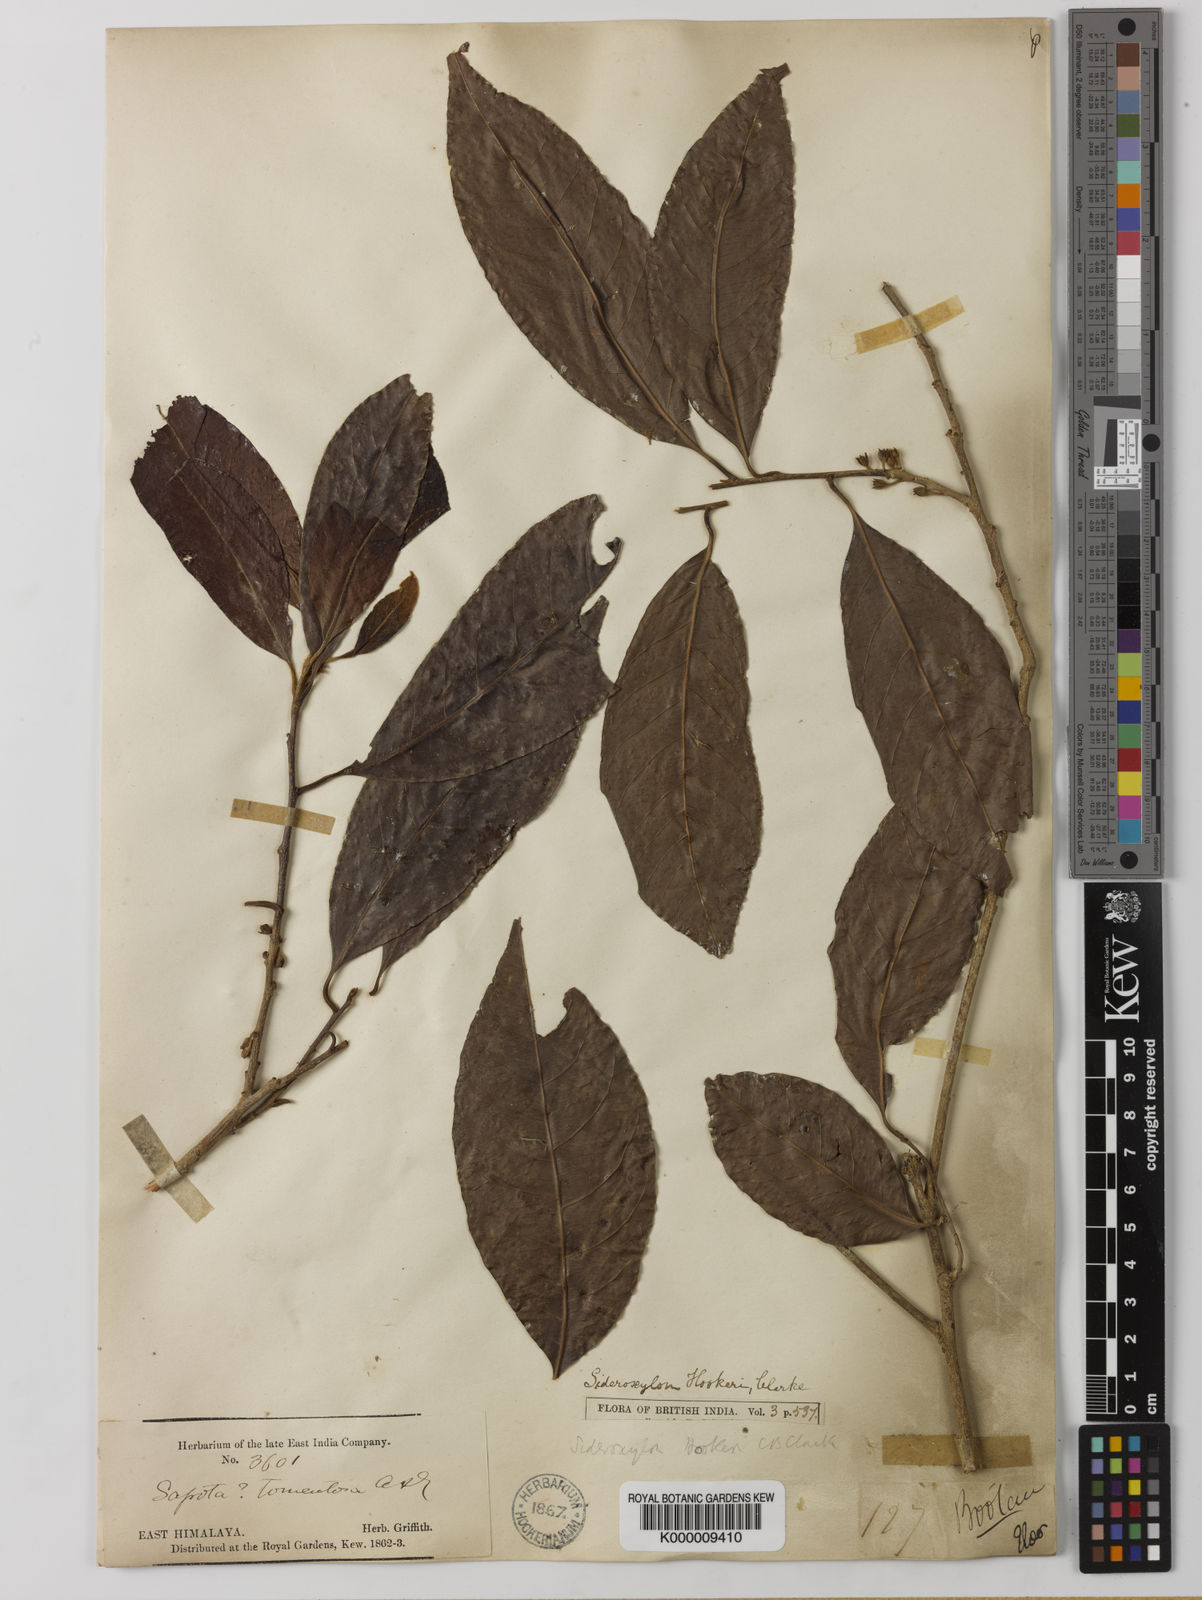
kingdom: Plantae
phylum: Tracheophyta
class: Magnoliopsida
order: Ericales
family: Sapotaceae
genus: Xantolis
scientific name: Xantolis hookeri
